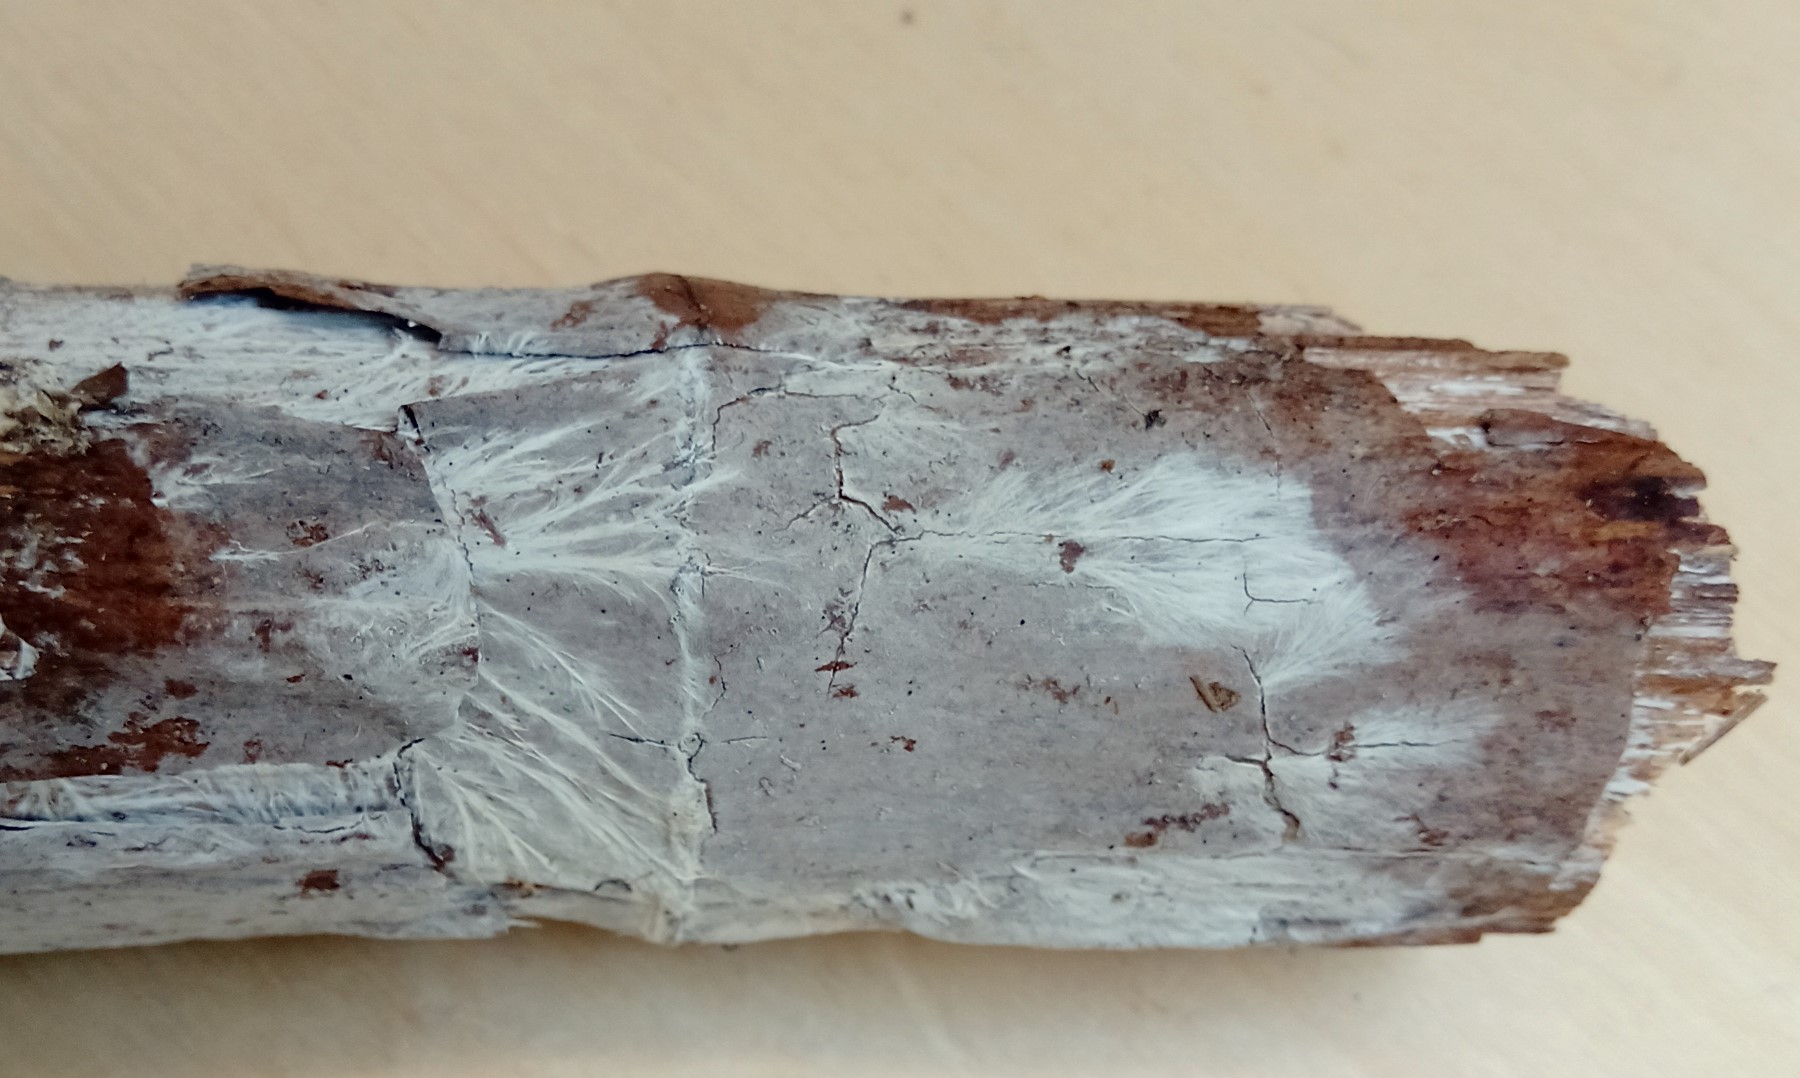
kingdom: Fungi
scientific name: Fungi
